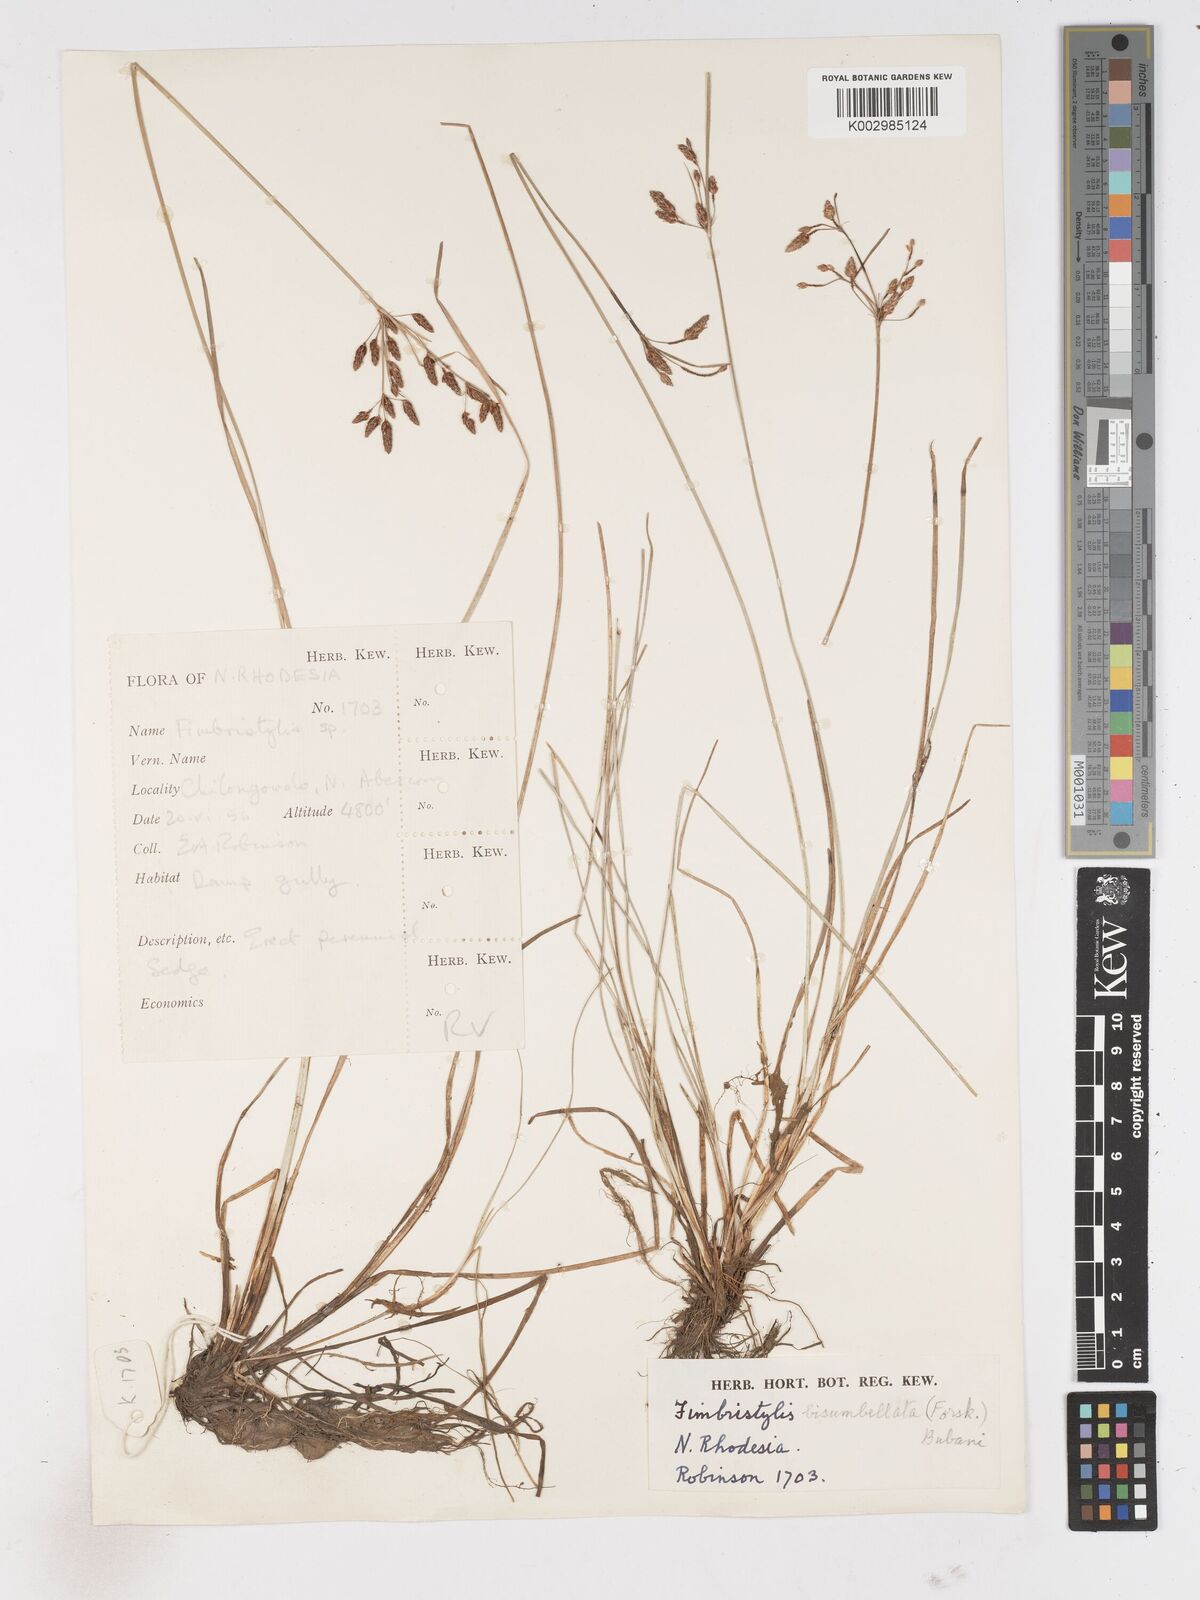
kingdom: Plantae
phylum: Tracheophyta
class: Liliopsida
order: Poales
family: Cyperaceae
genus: Fimbristylis
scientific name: Fimbristylis dichotoma
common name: Forked fimbry
